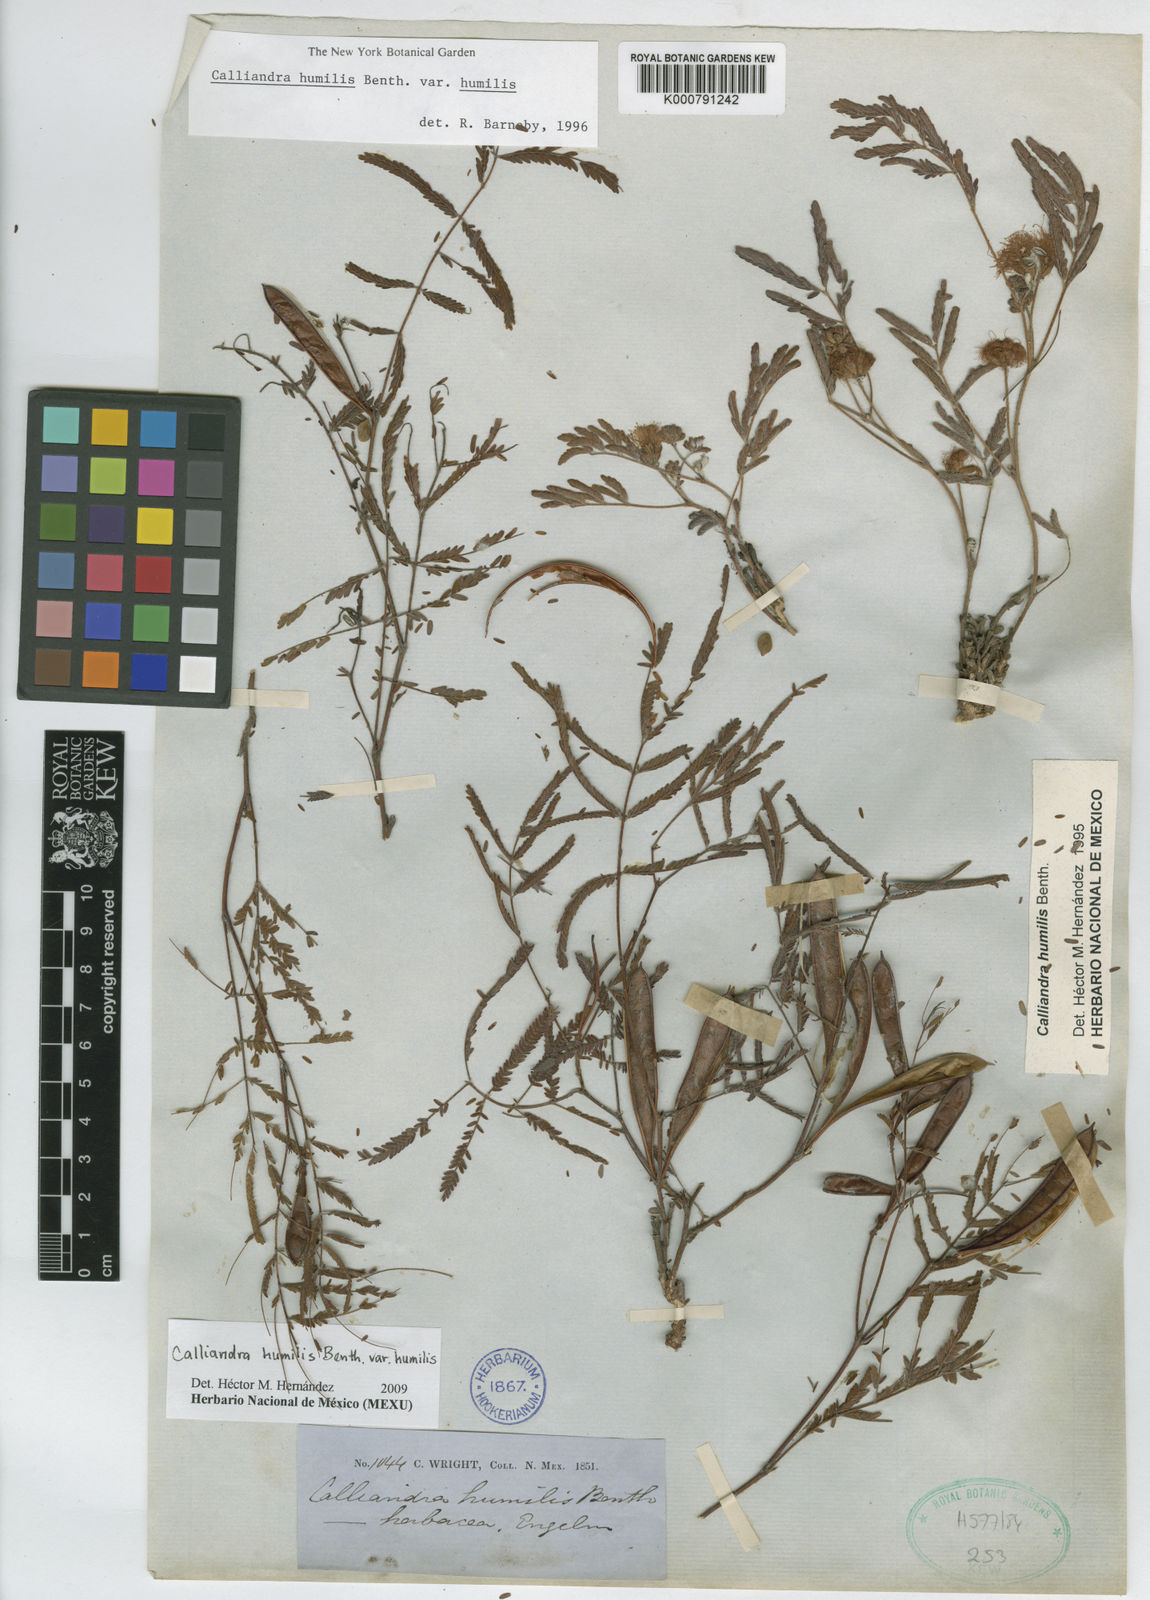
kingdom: Plantae
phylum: Tracheophyta
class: Magnoliopsida
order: Fabales
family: Fabaceae
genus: Calliandra
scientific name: Calliandra humilis
